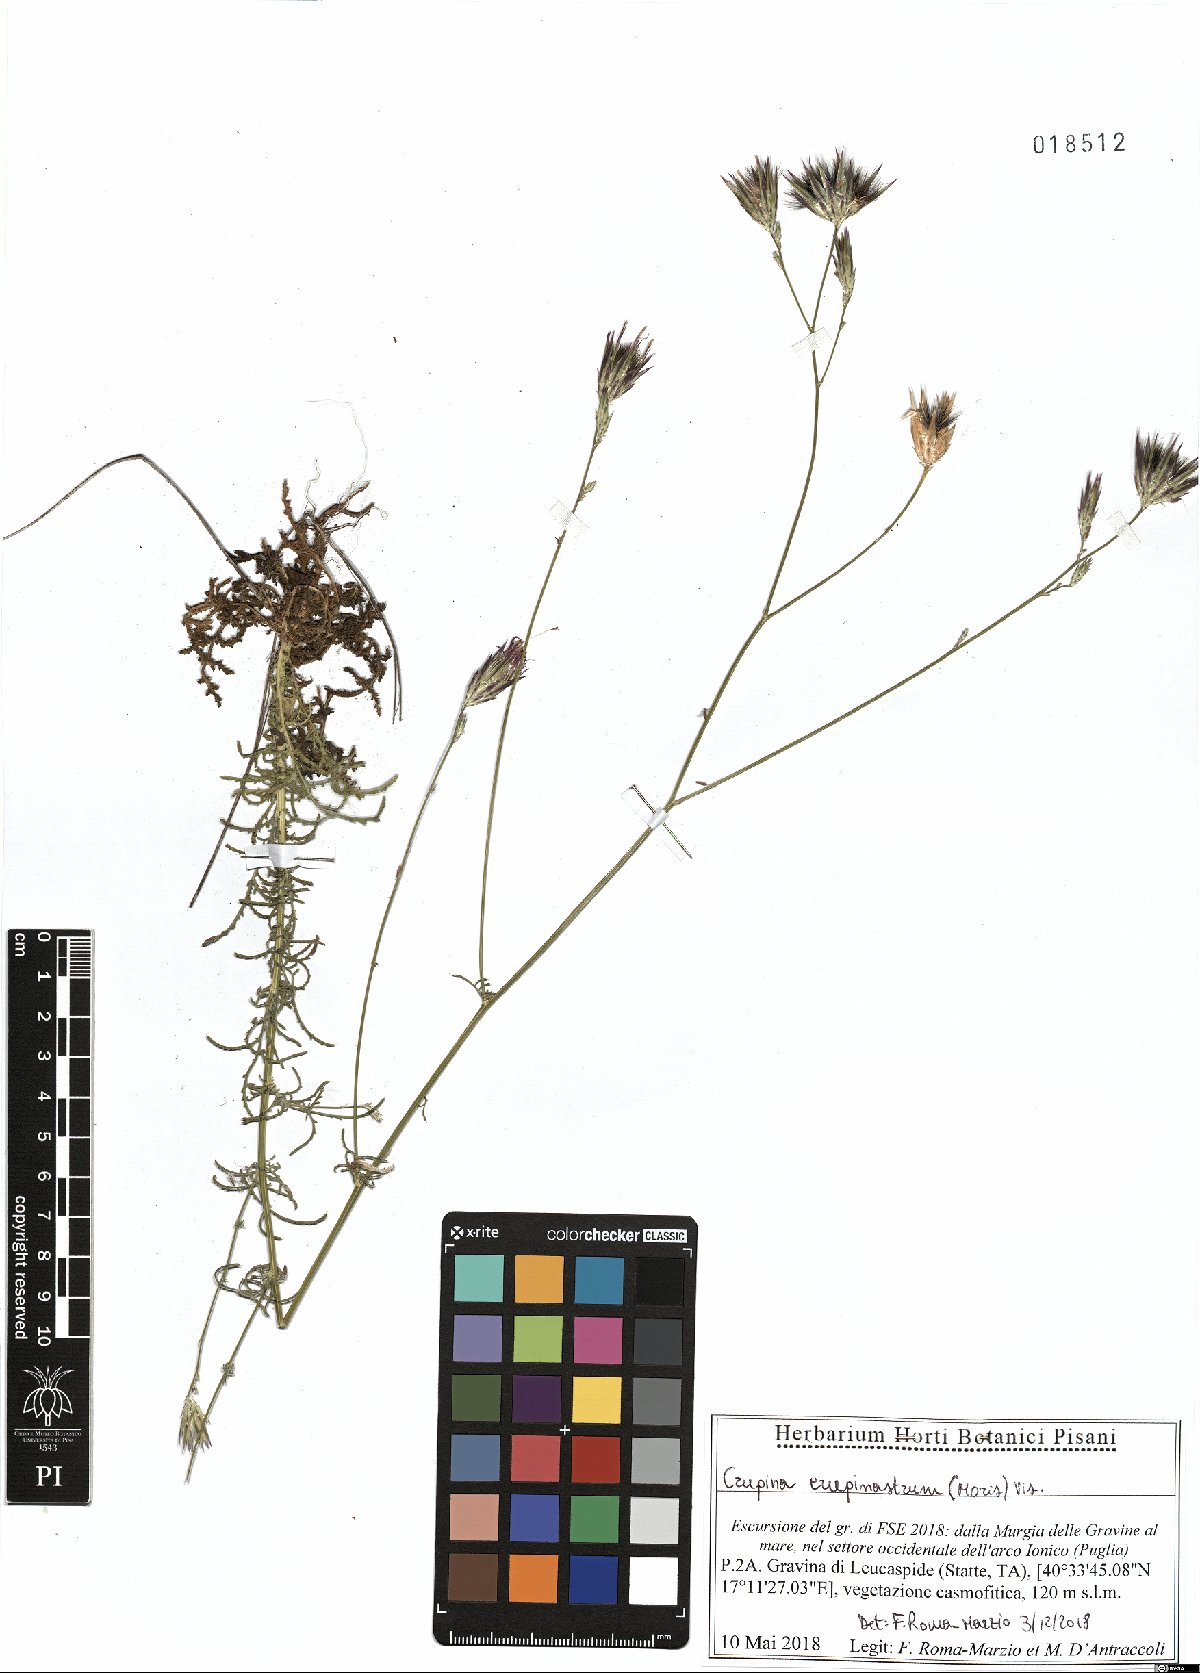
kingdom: Plantae
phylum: Tracheophyta
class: Magnoliopsida
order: Asterales
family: Asteraceae
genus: Crupina
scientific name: Crupina crupinastrum
